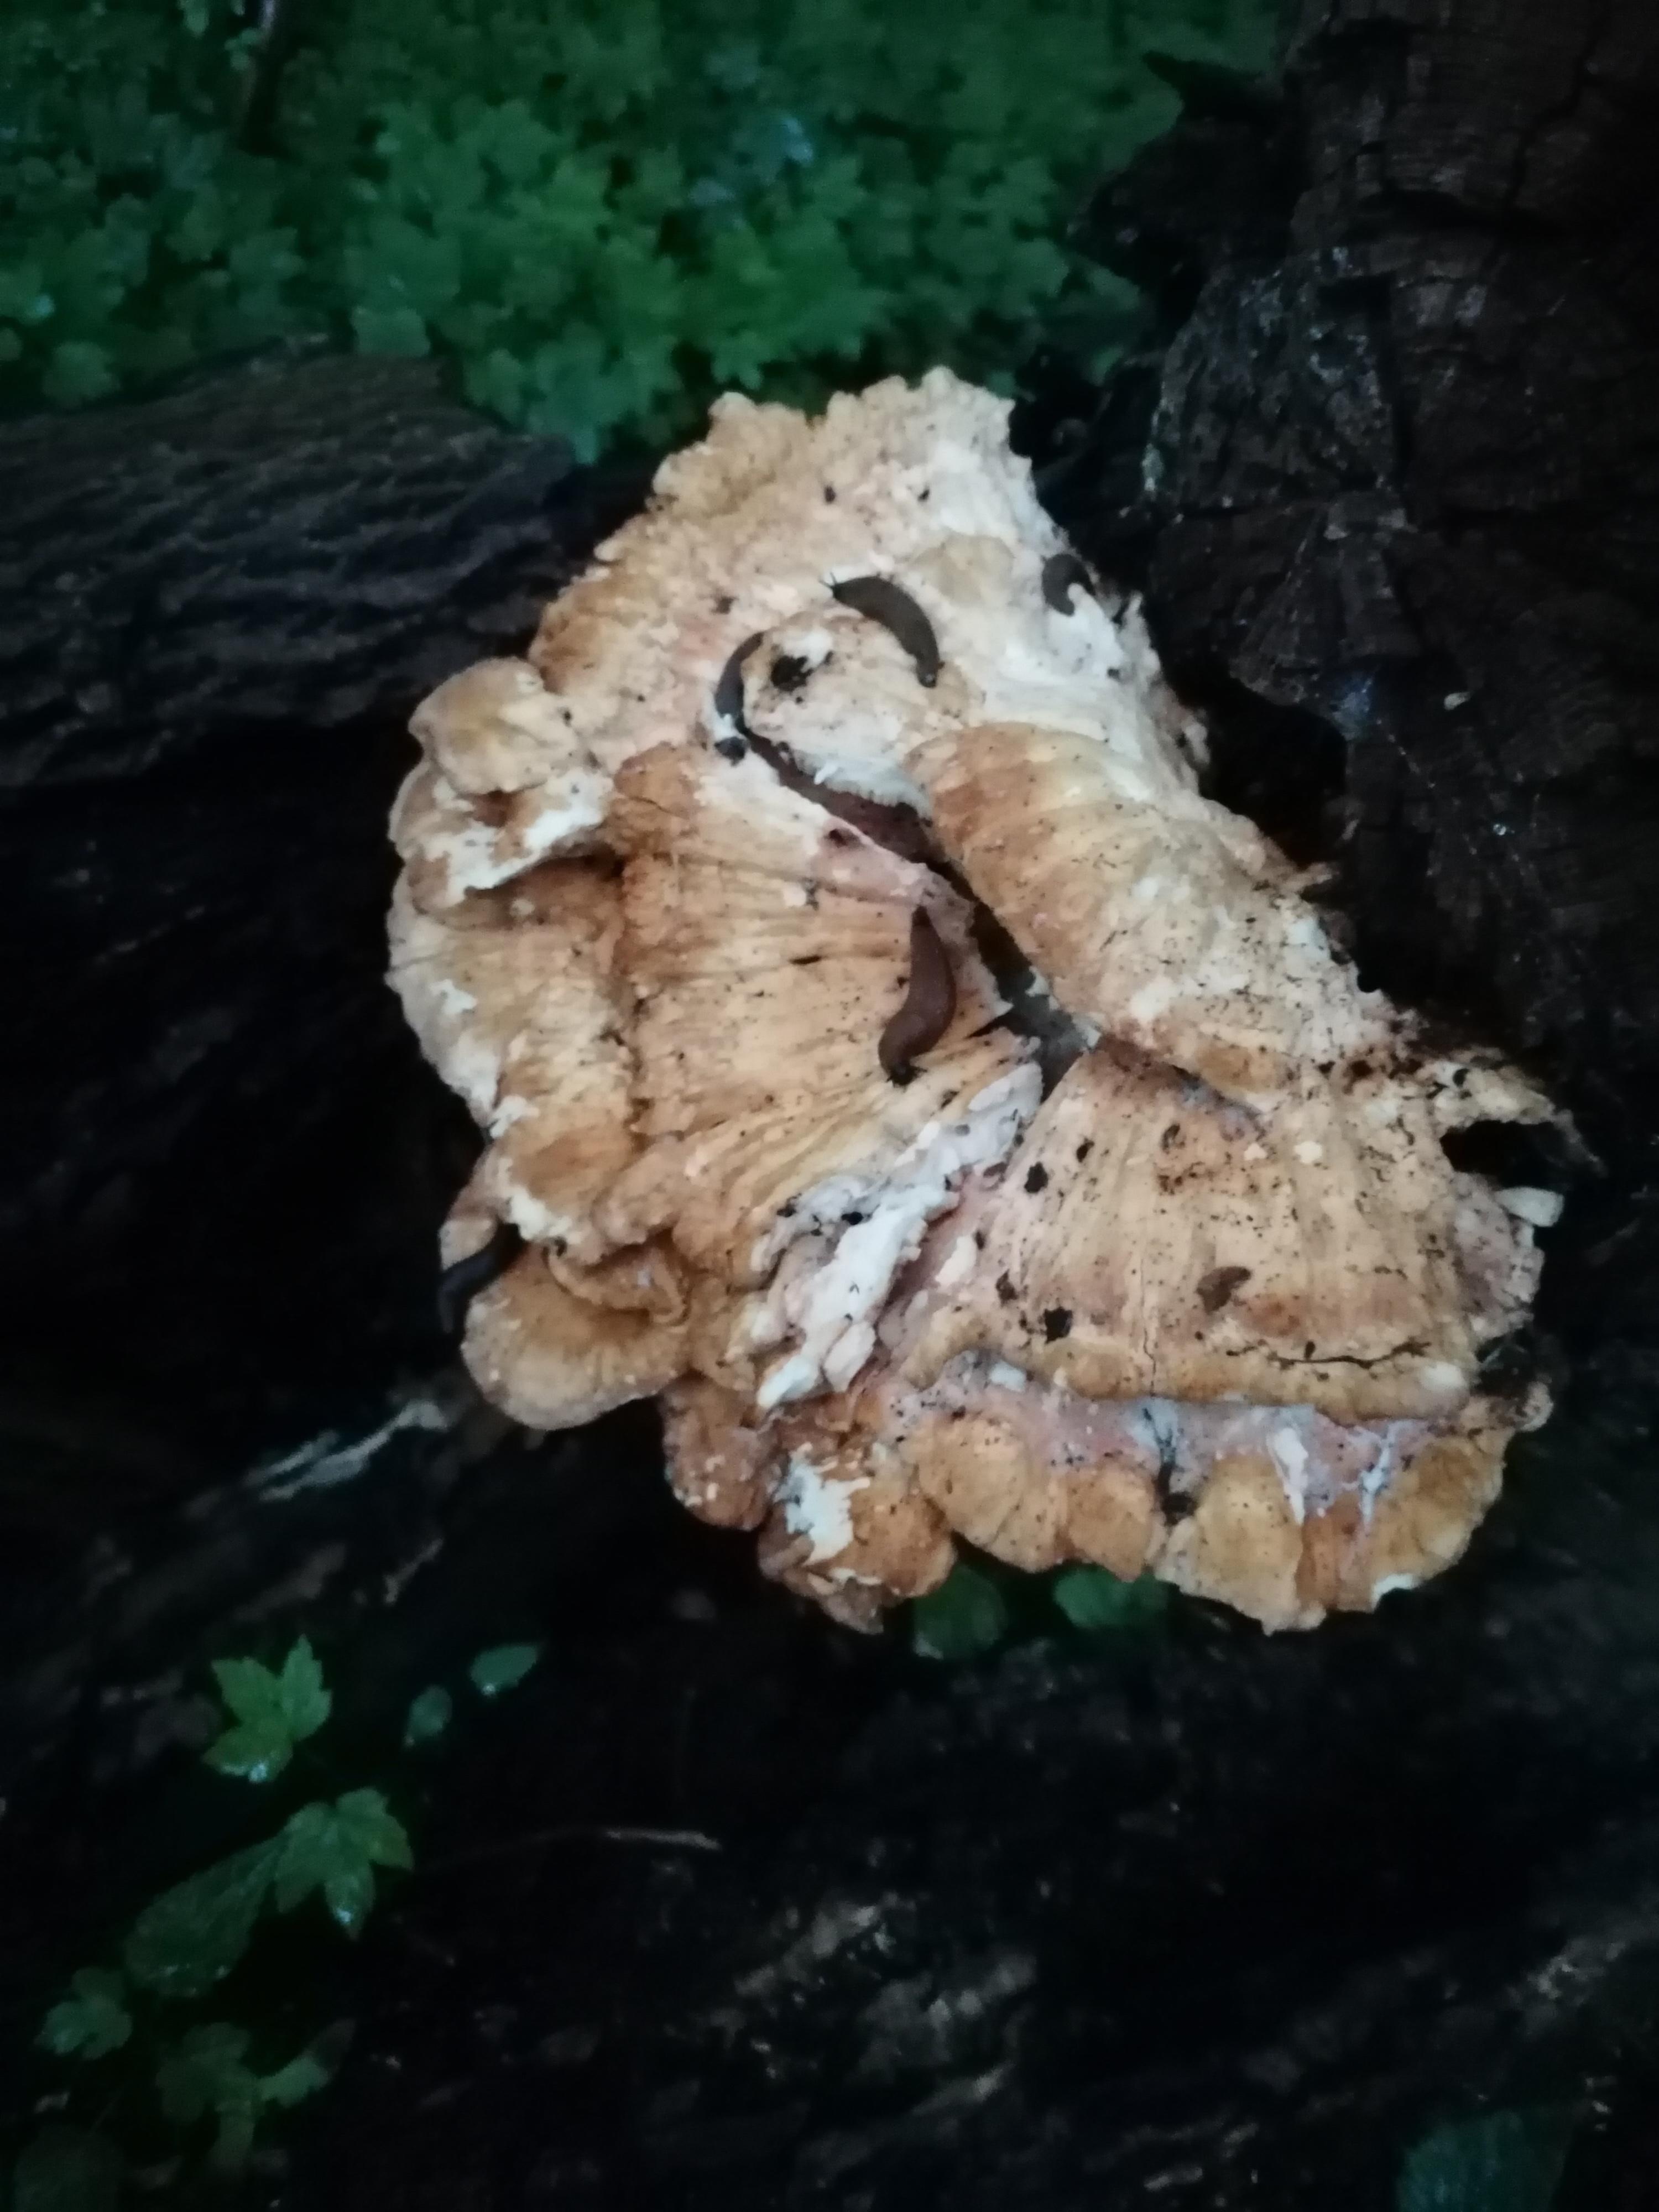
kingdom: Fungi
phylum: Basidiomycota
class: Agaricomycetes
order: Polyporales
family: Laetiporaceae
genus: Laetiporus
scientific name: Laetiporus sulphureus
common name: svovlporesvamp
